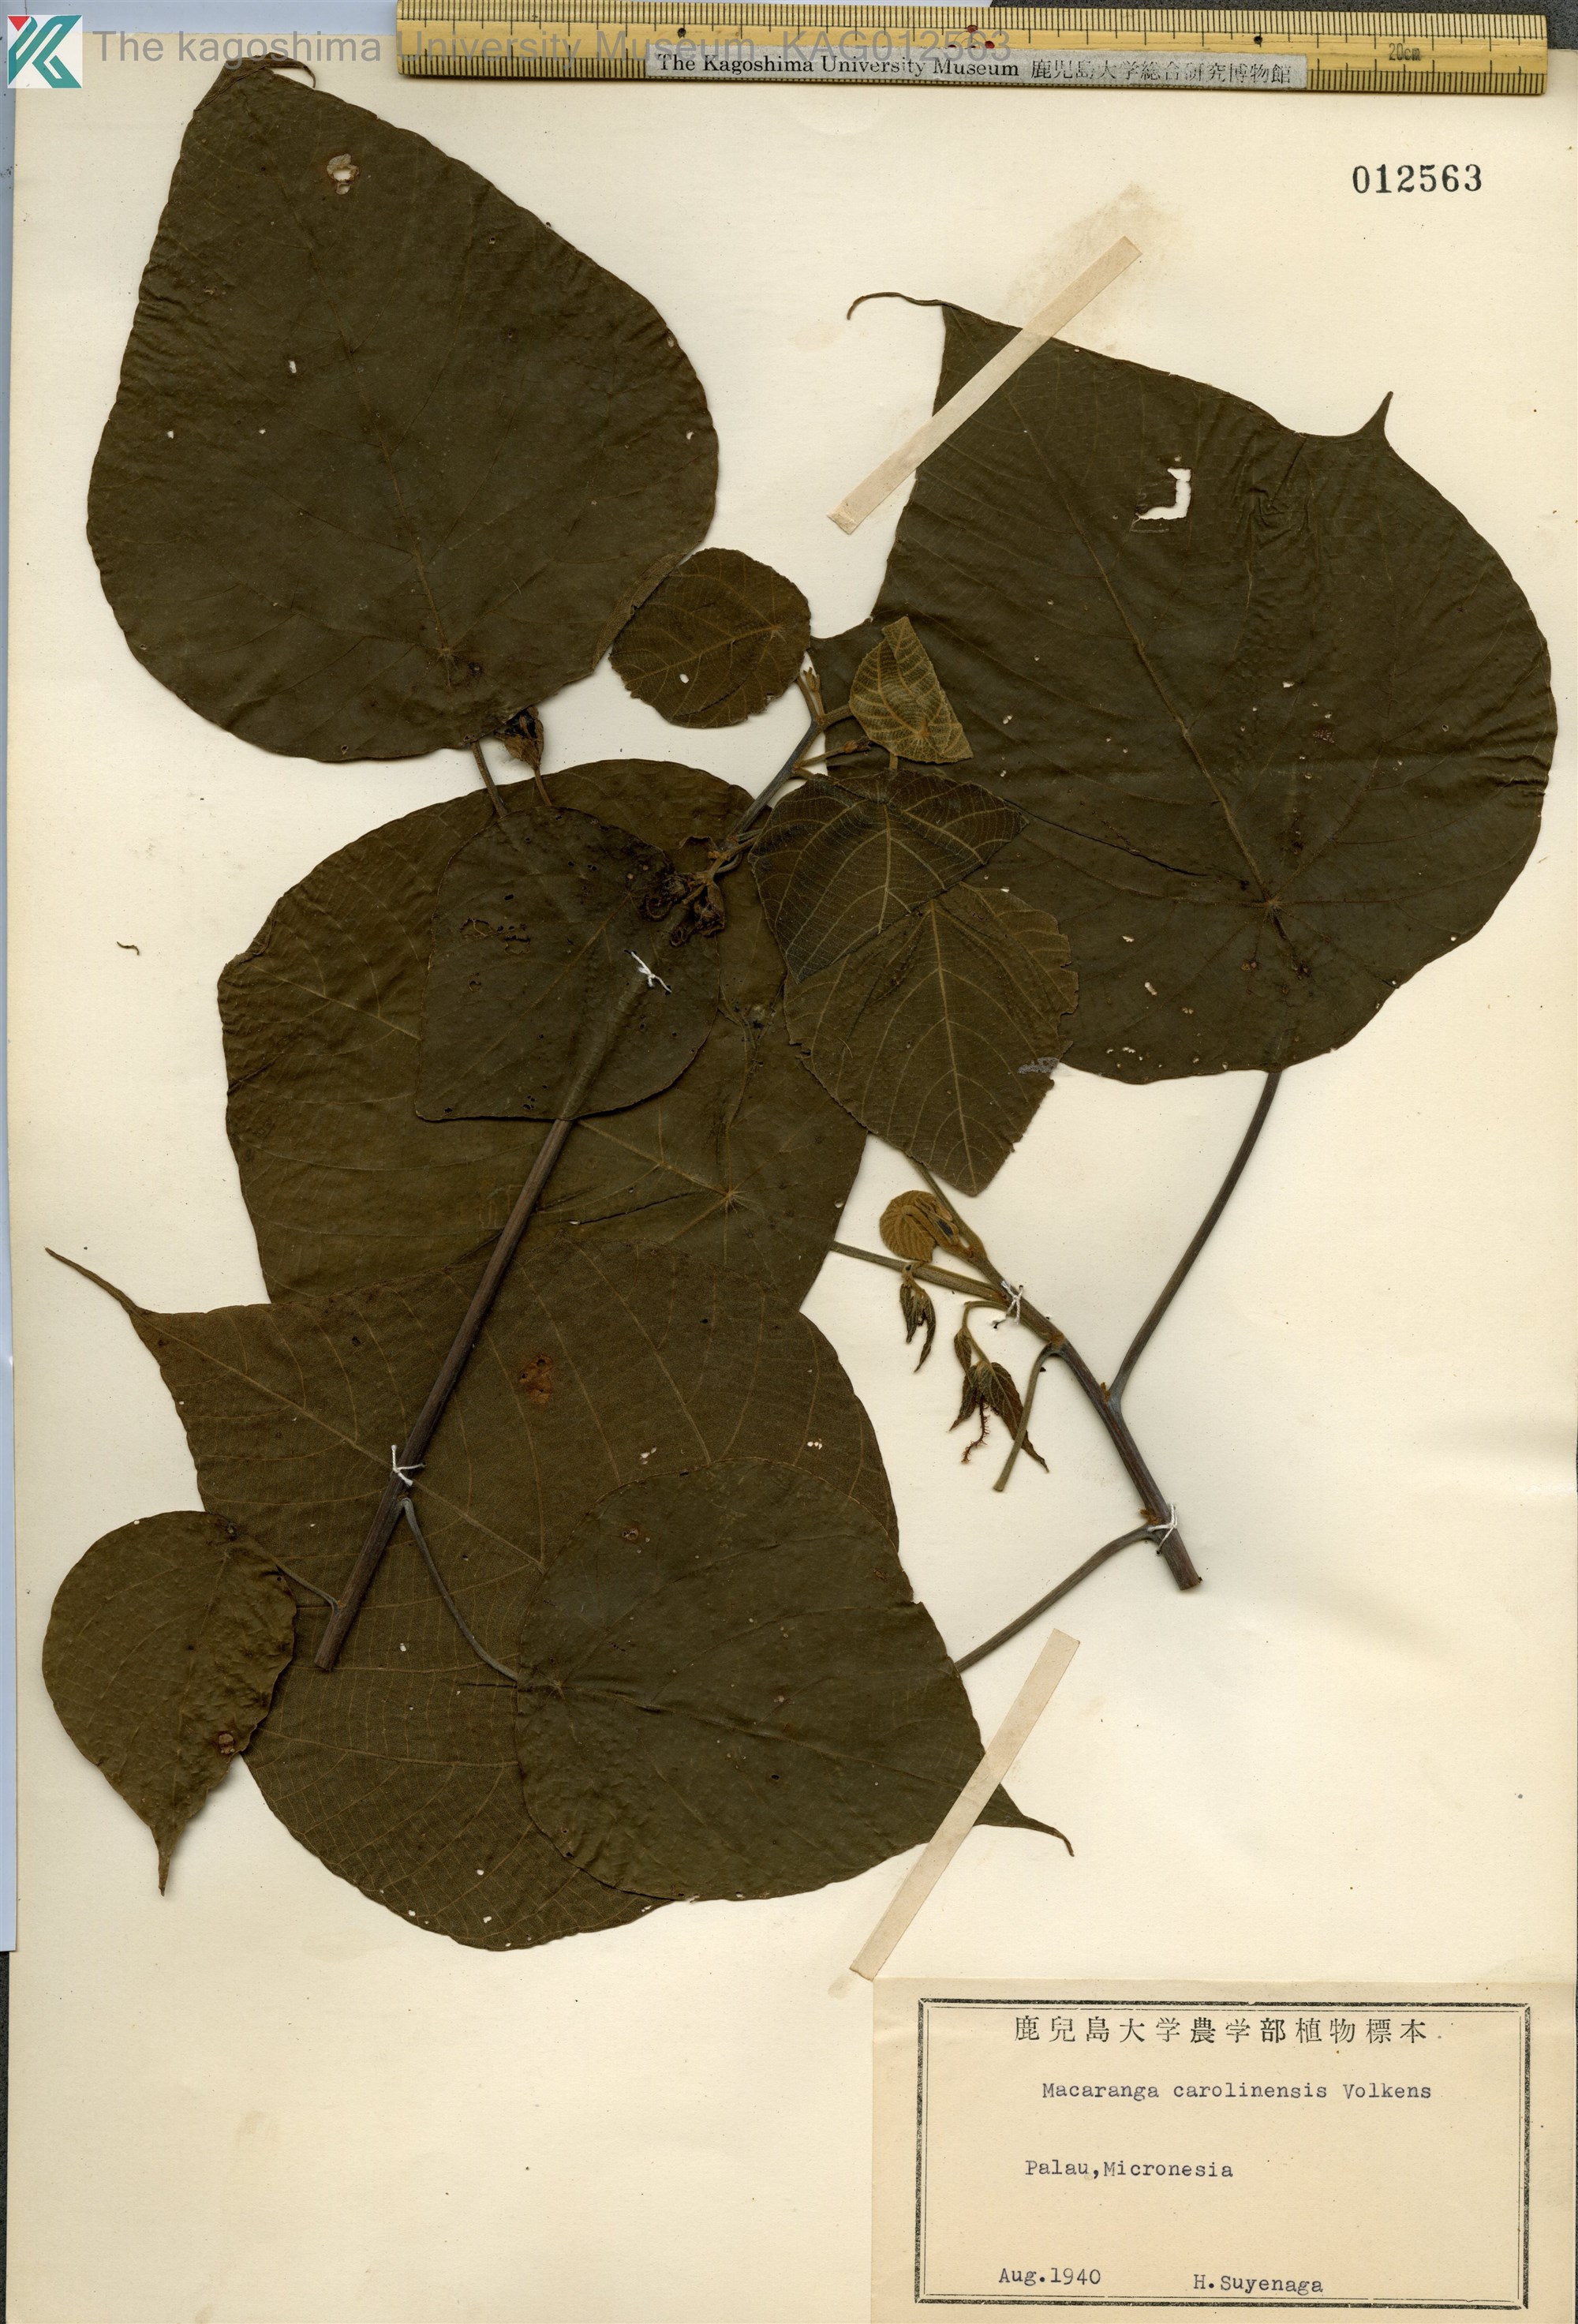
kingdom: Plantae
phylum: Tracheophyta
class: Magnoliopsida
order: Malpighiales
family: Euphorbiaceae
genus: Macaranga
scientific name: Macaranga carolinensis
